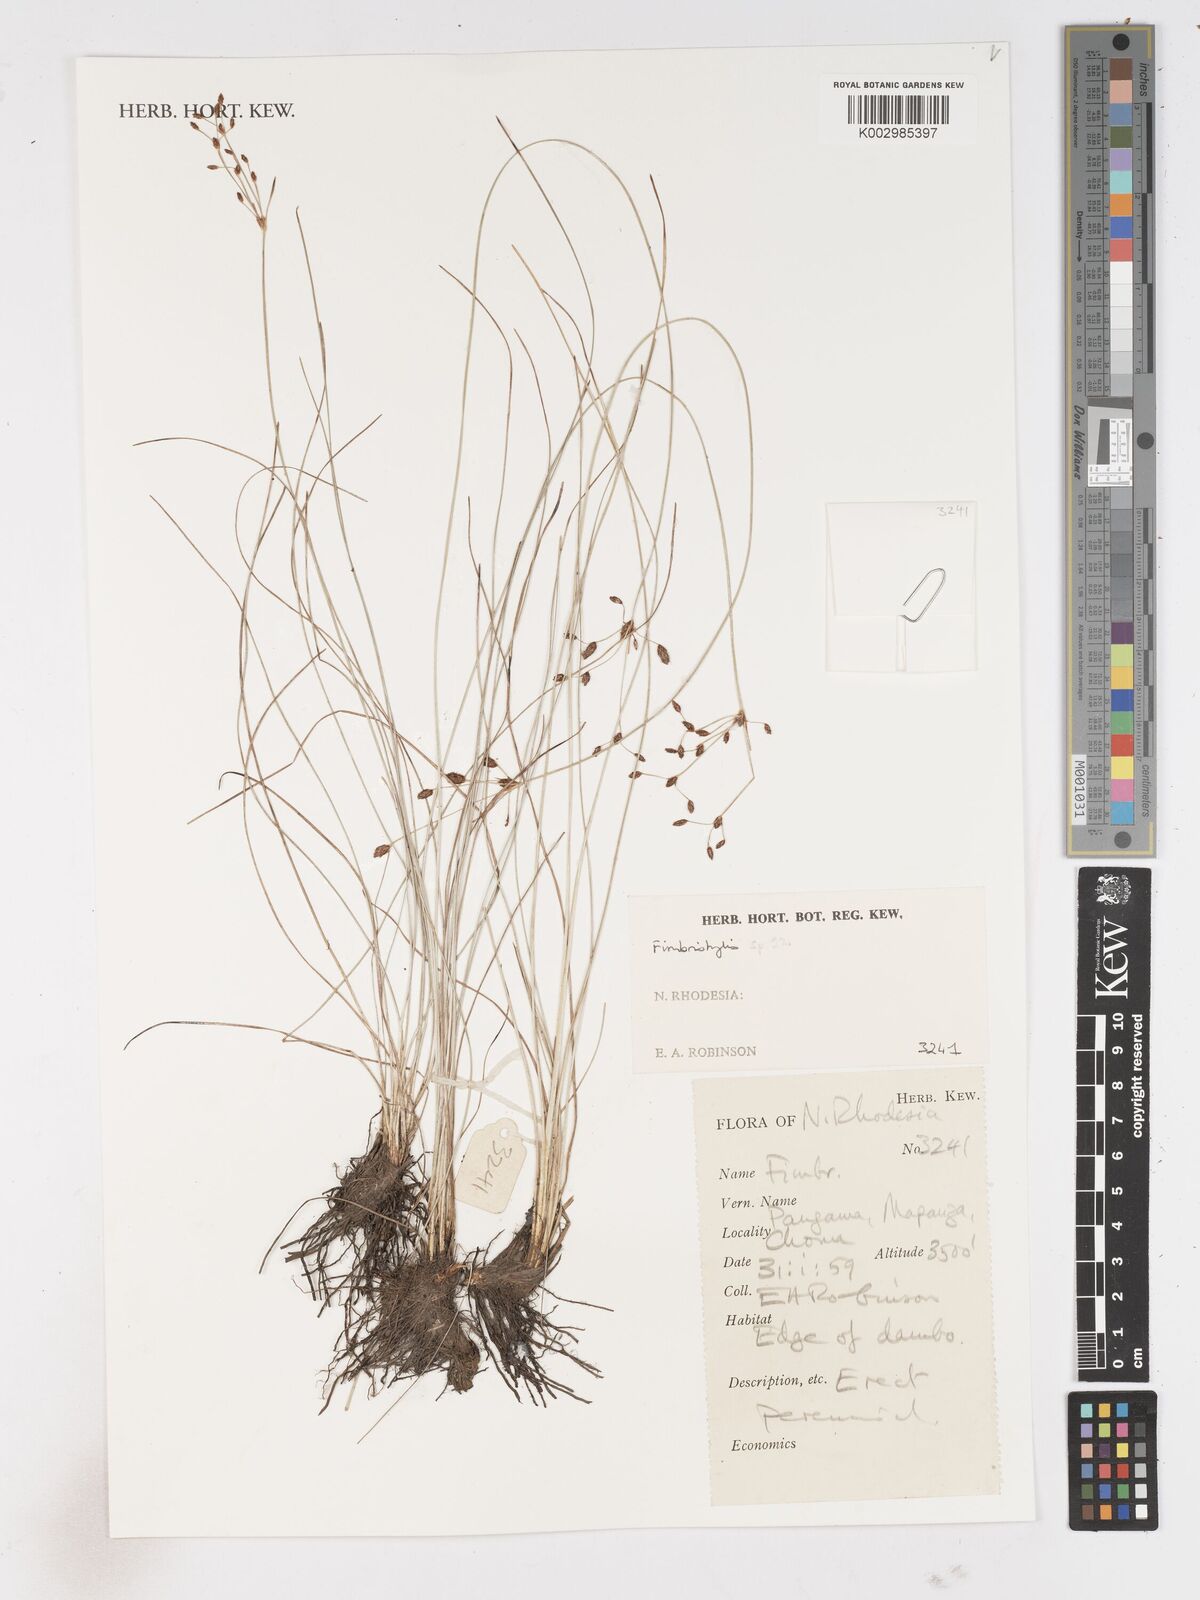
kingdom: Plantae
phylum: Tracheophyta
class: Liliopsida
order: Poales
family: Cyperaceae
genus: Fimbristylis
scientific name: Fimbristylis
